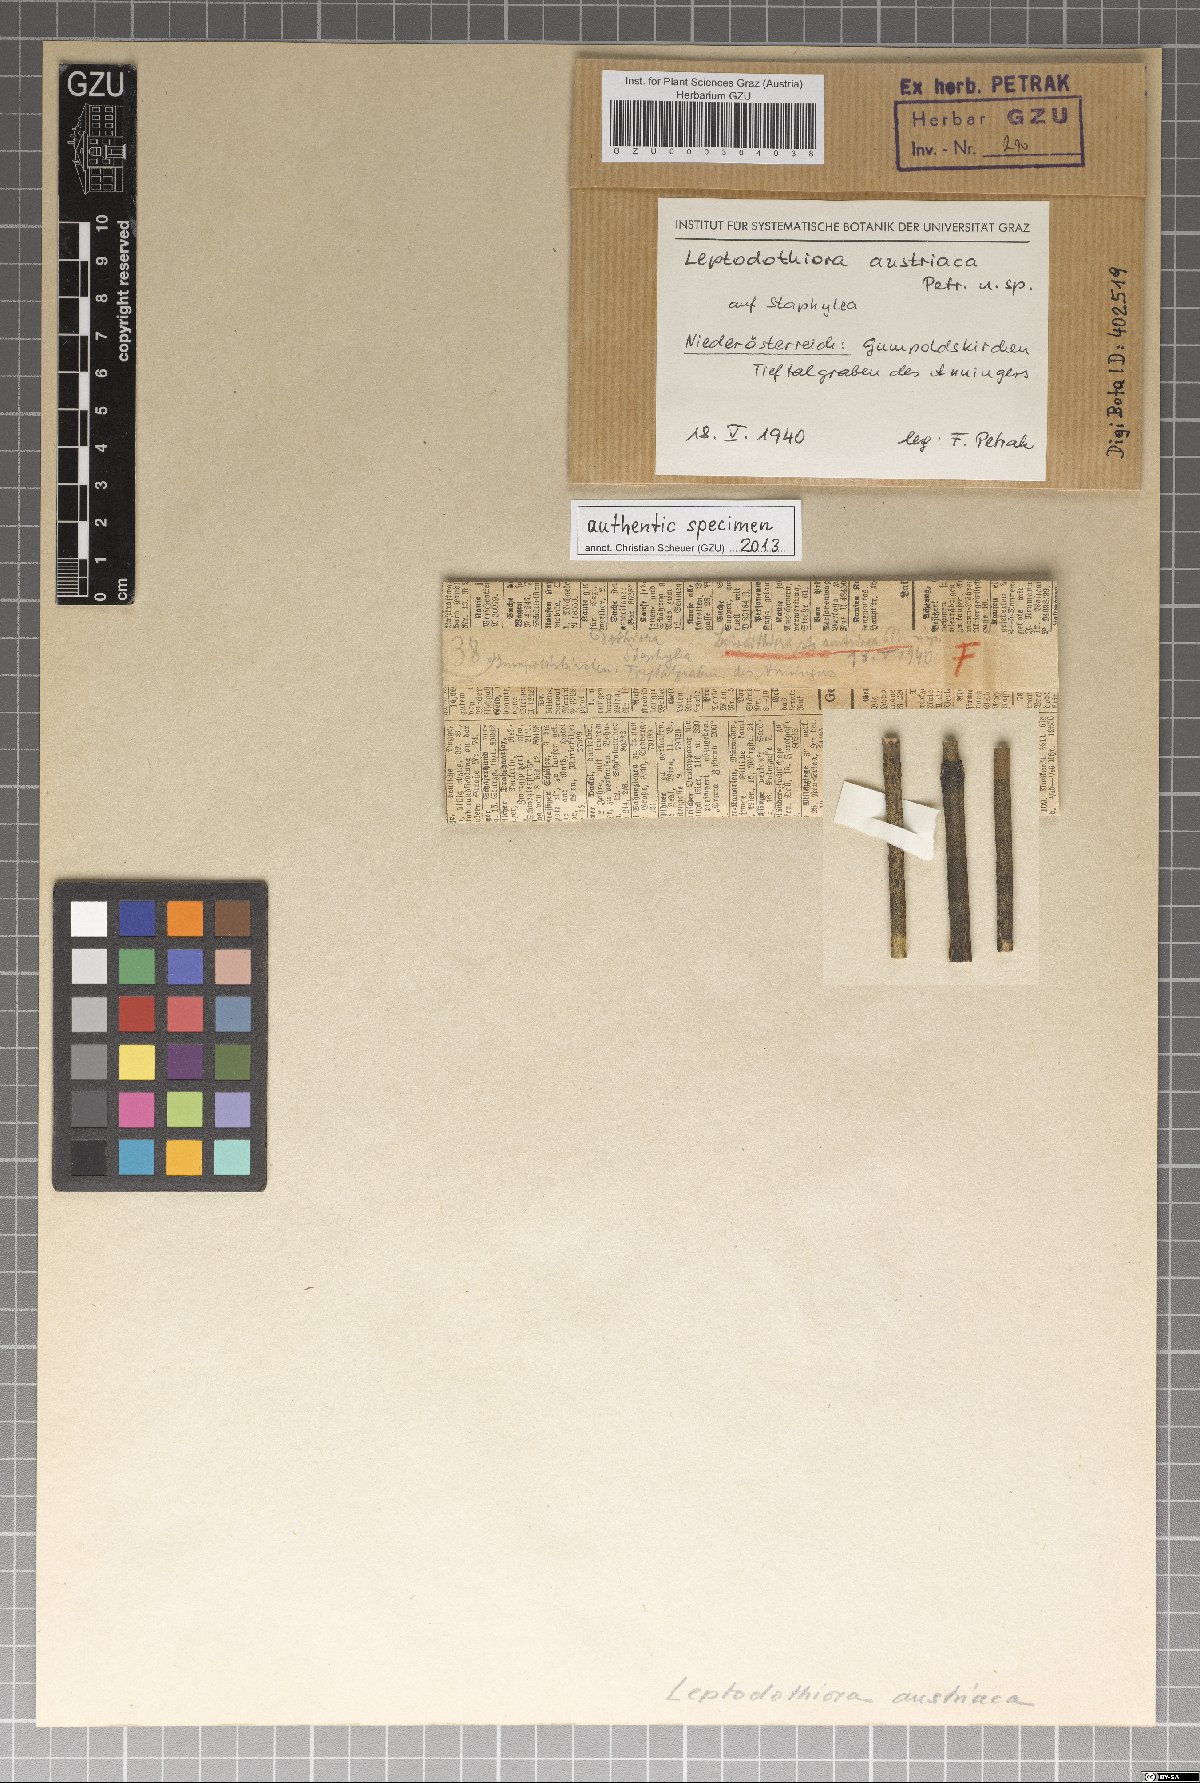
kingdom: Fungi
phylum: Ascomycota
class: Dothideomycetes
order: Dothideales
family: Dothioraceae
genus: Leptodothiora
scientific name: Leptodothiora austriaca
